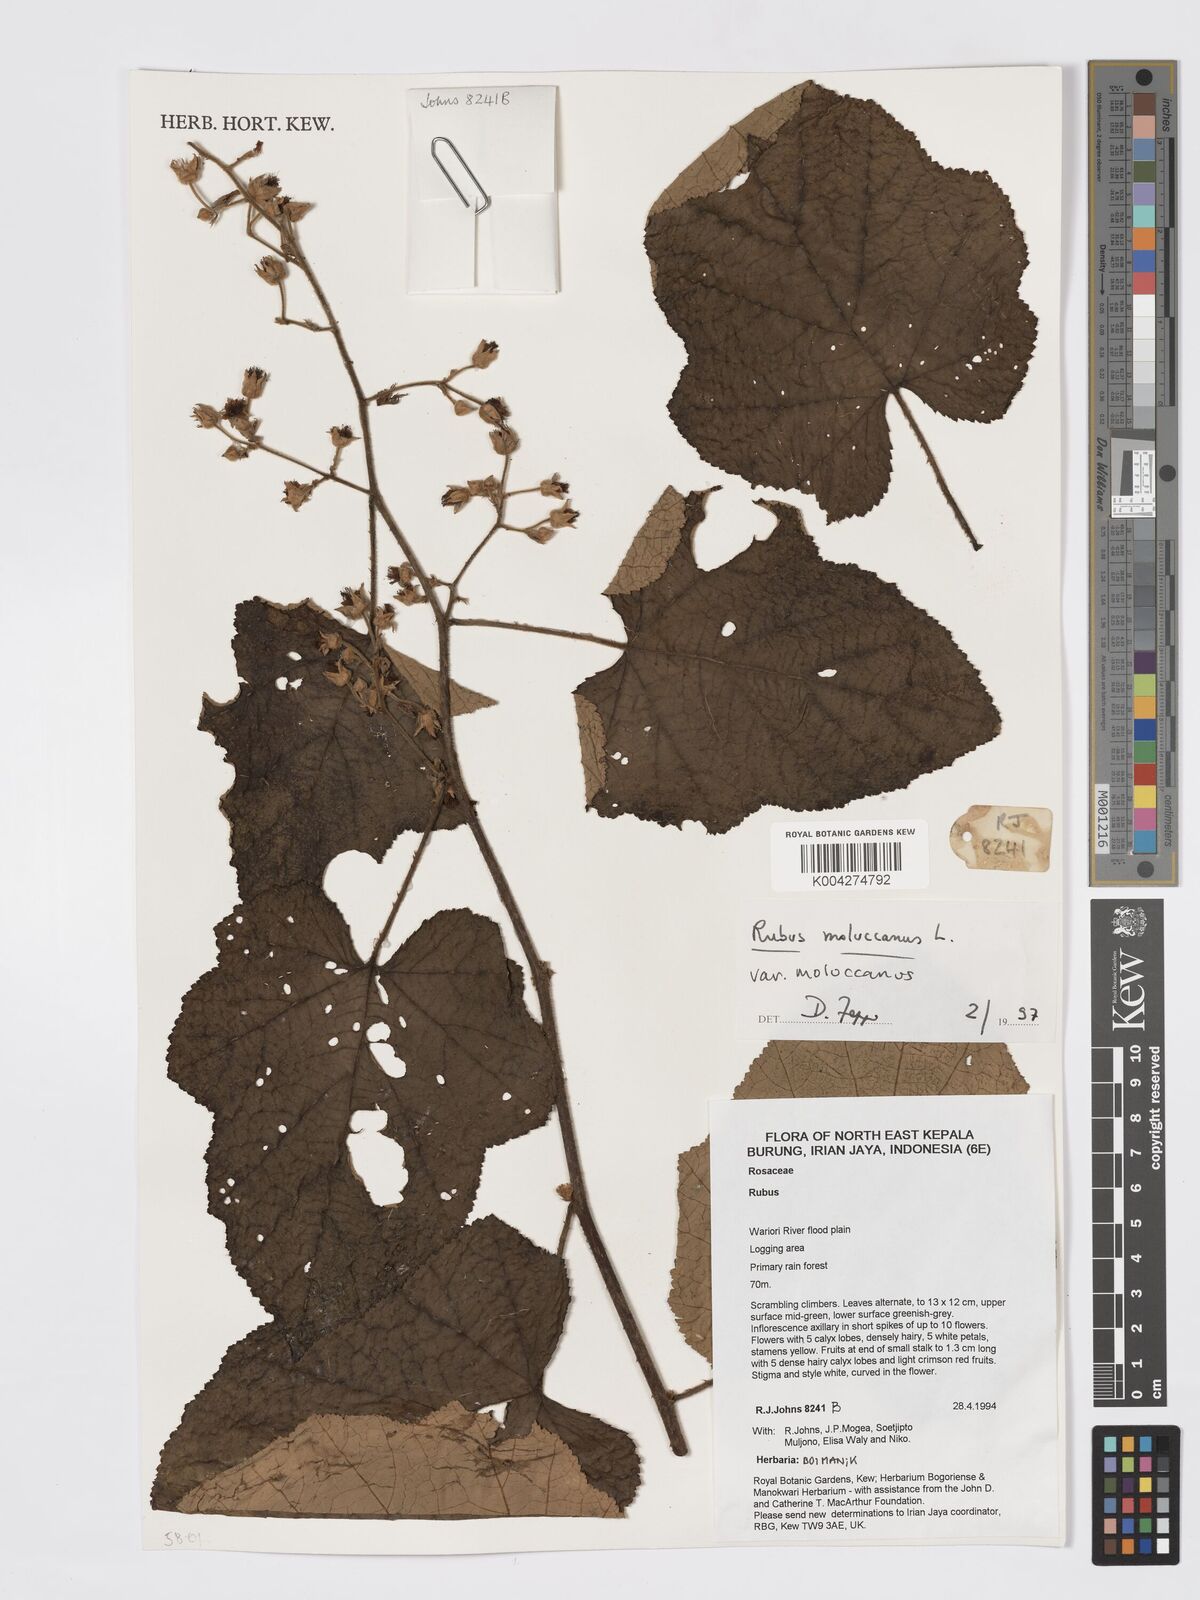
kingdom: Plantae
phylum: Tracheophyta
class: Magnoliopsida
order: Rosales
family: Rosaceae
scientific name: Rosaceae
